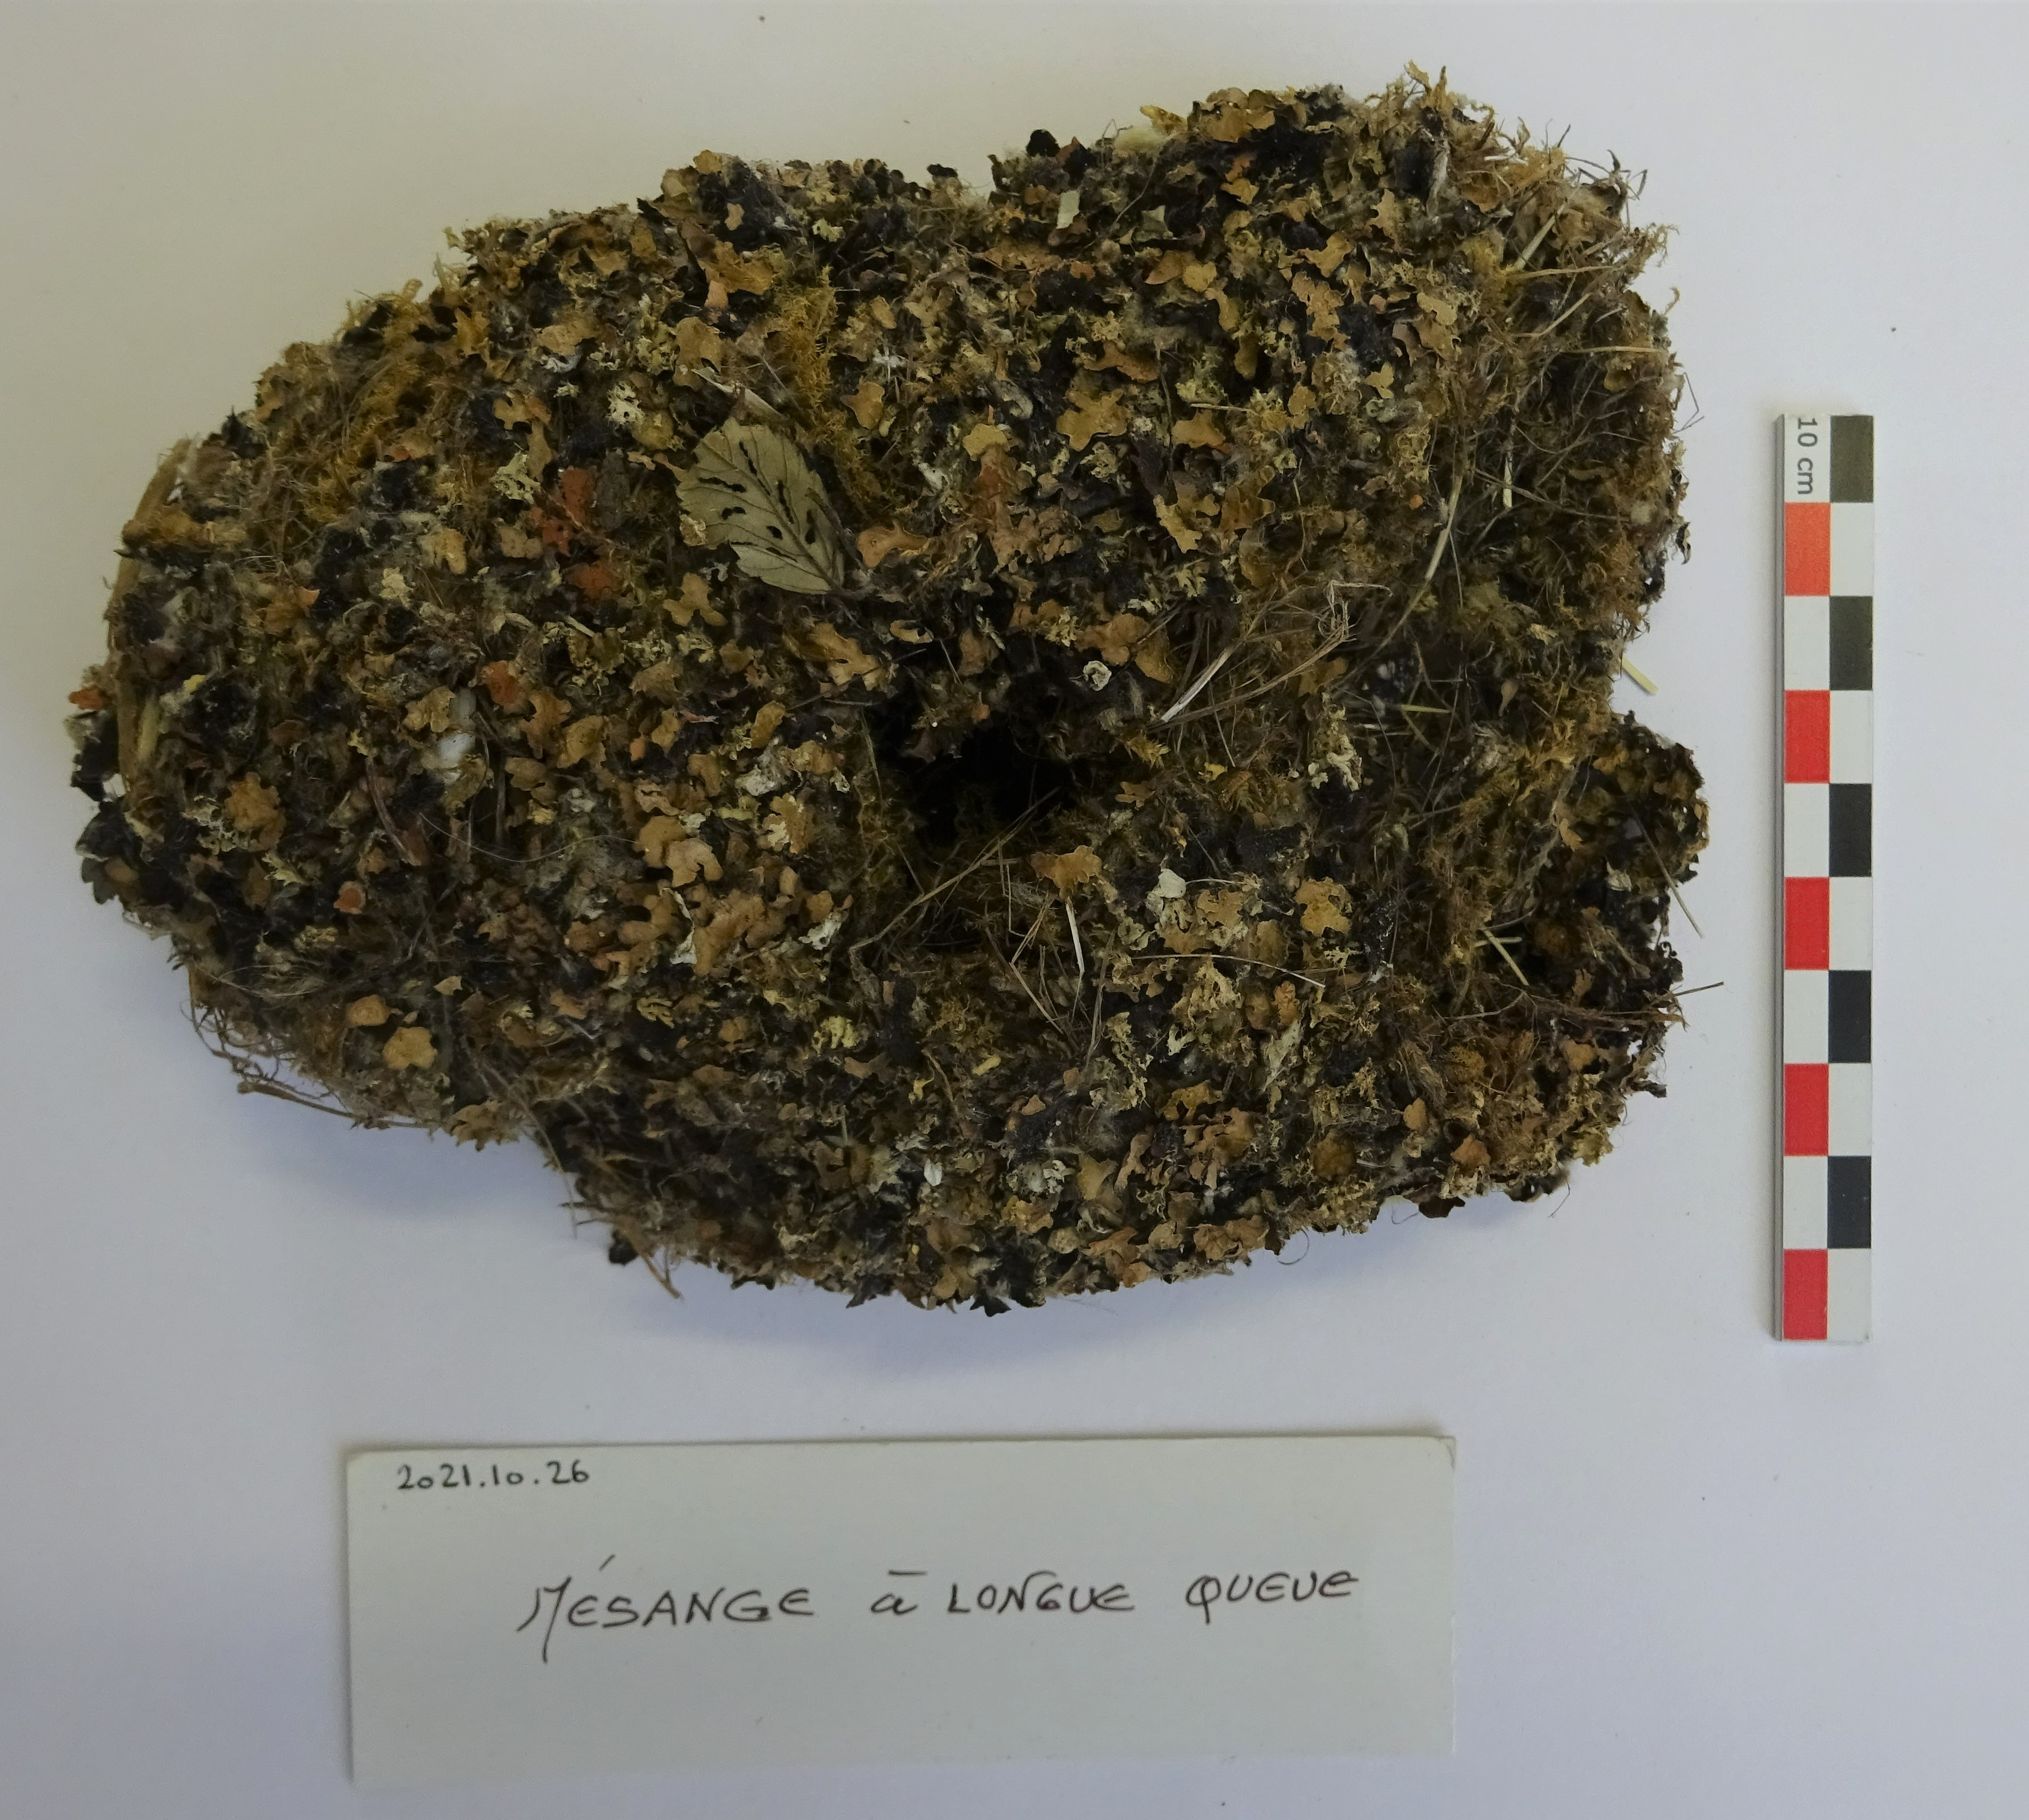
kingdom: Animalia
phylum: Chordata
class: Aves
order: Passeriformes
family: Aegithalidae
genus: Aegithalos
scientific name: Aegithalos caudatus
